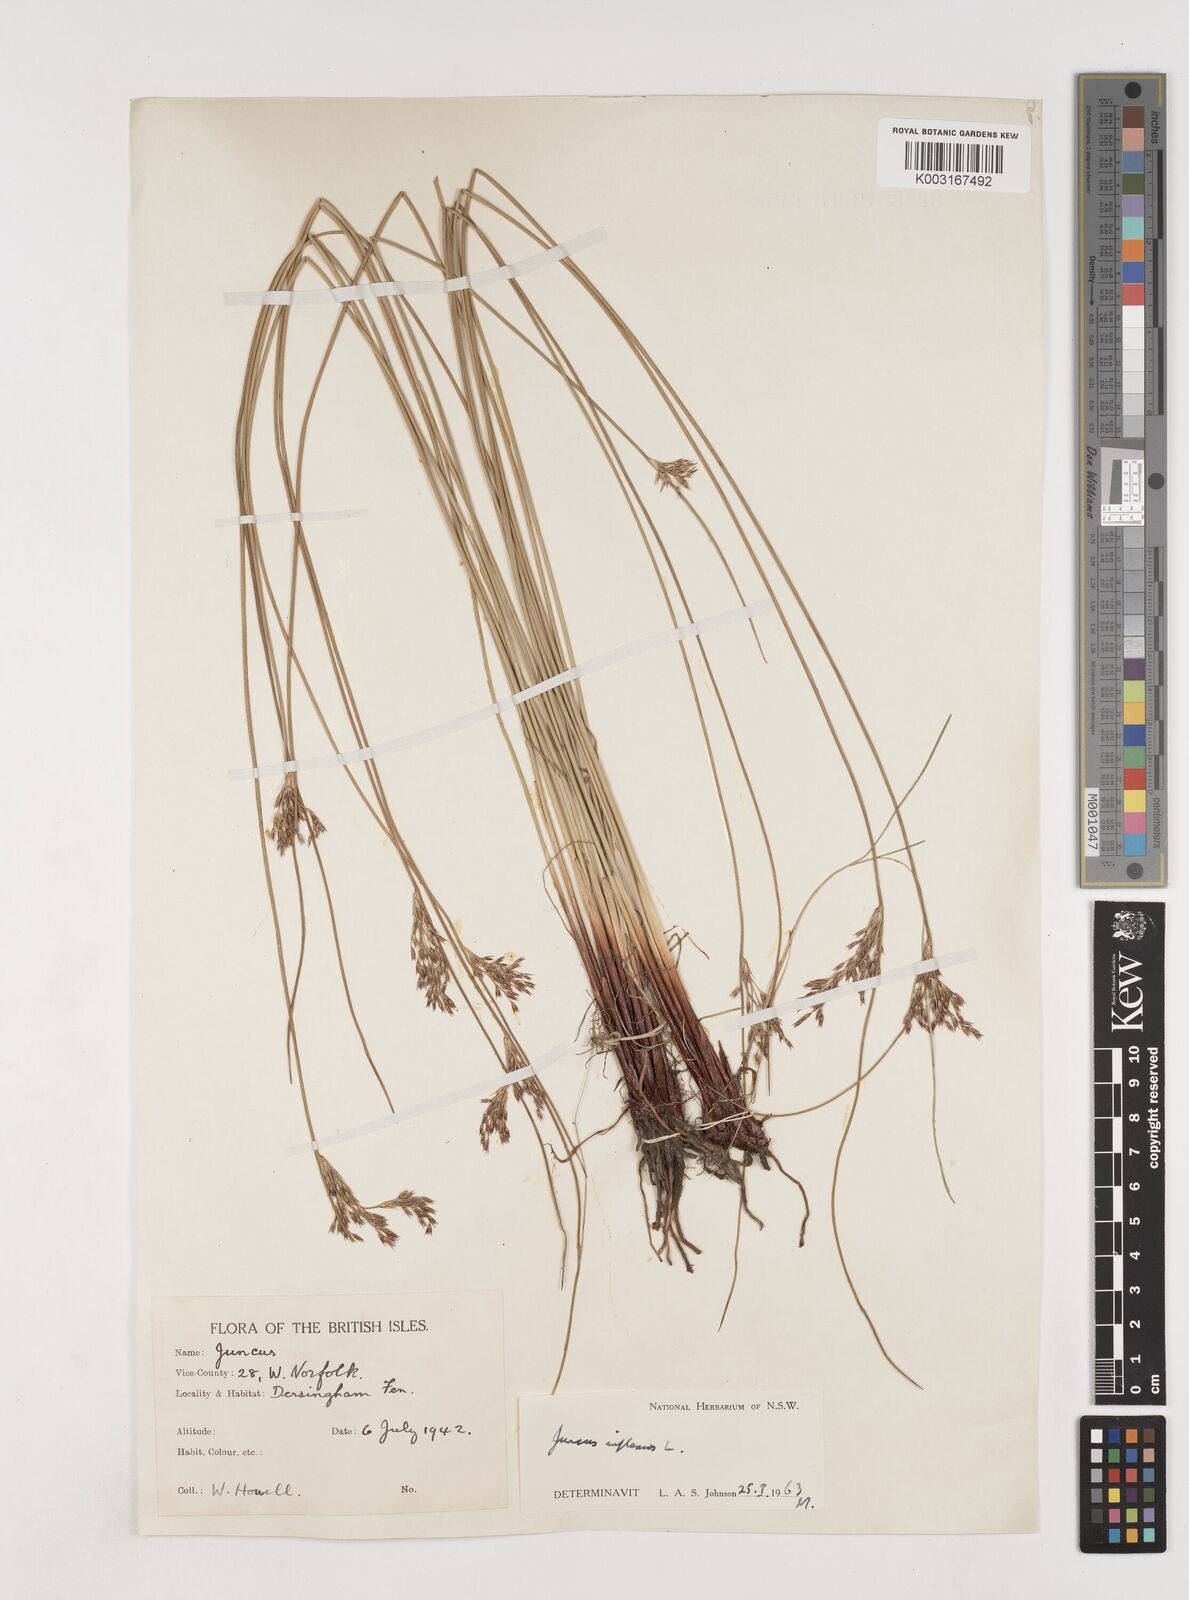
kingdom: Plantae
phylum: Tracheophyta
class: Liliopsida
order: Poales
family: Juncaceae
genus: Juncus
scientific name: Juncus inflexus
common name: Hard rush
